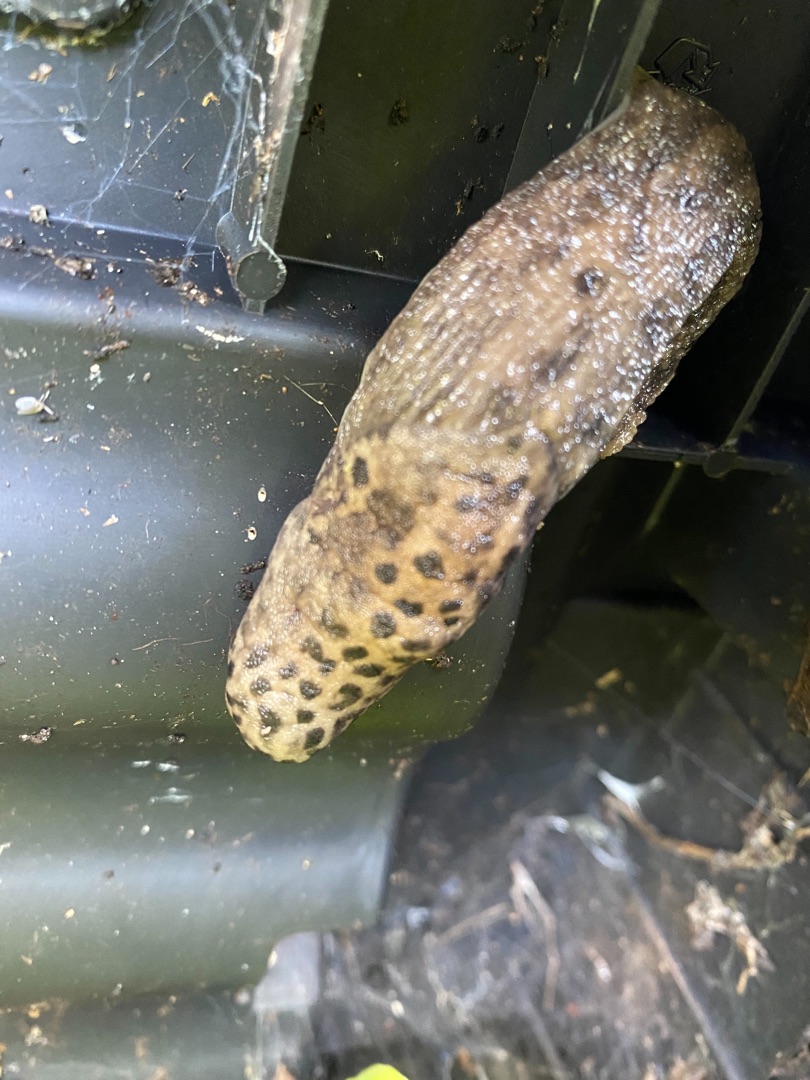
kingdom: Animalia
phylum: Mollusca
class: Gastropoda
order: Stylommatophora
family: Limacidae
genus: Limax
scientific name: Limax maximus
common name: Pantersnegl
